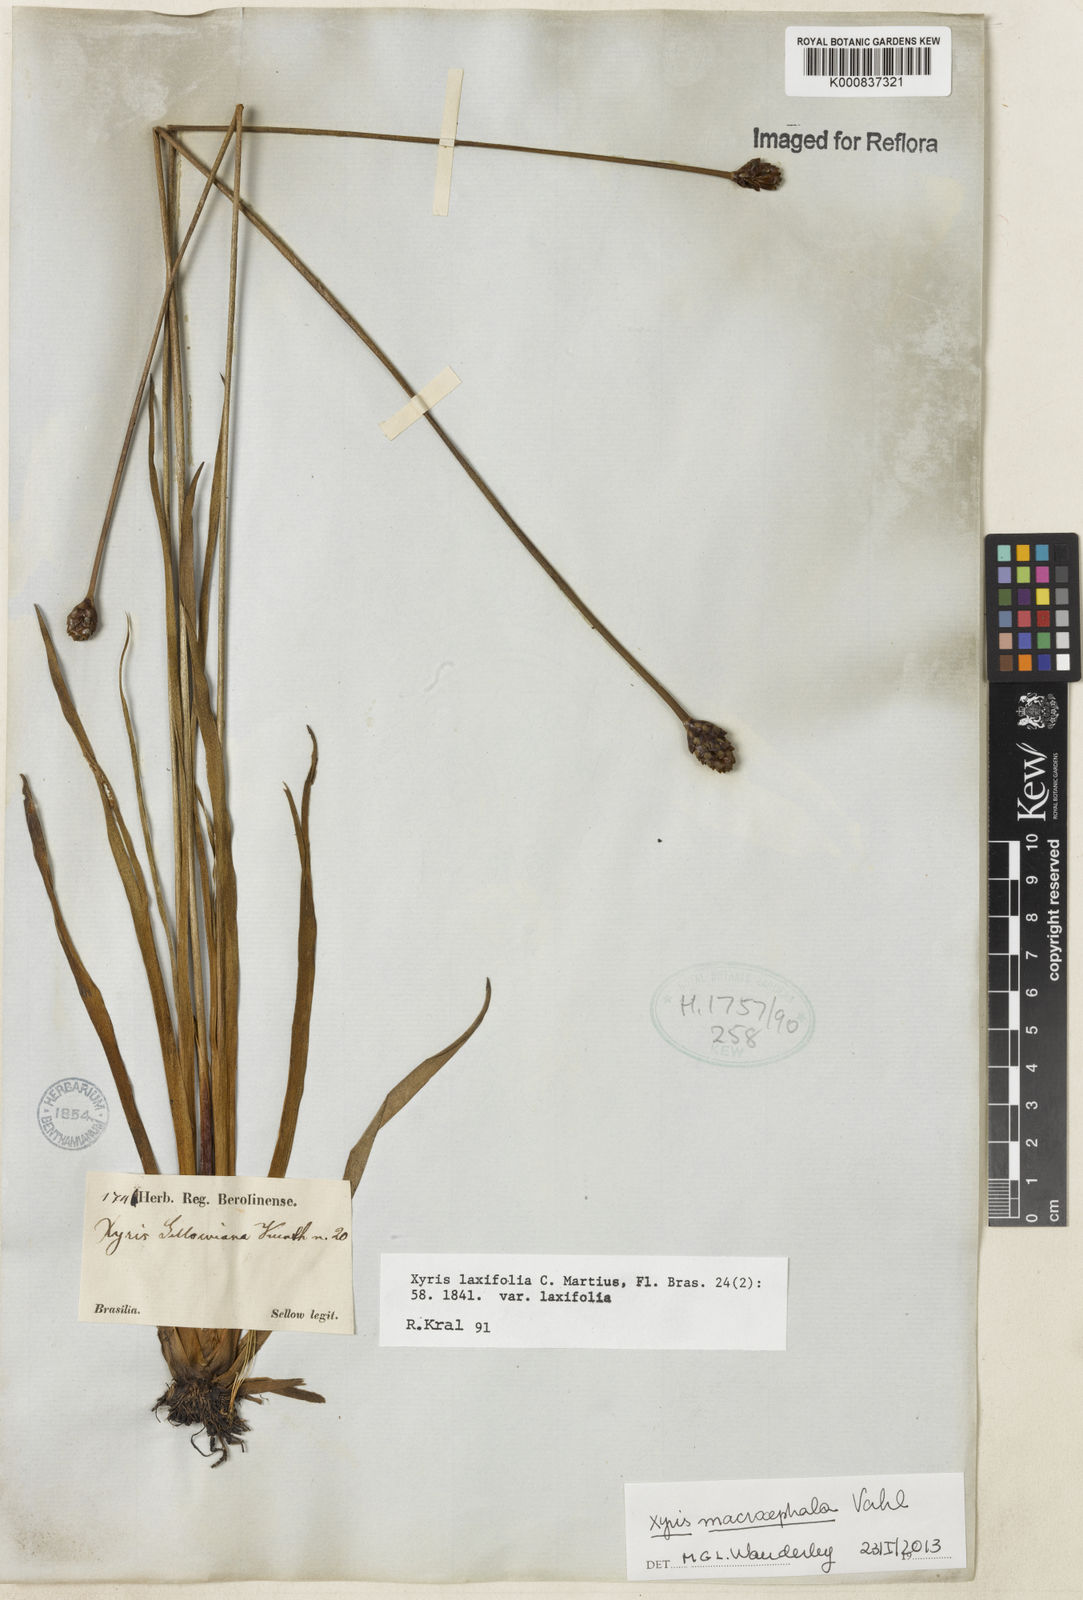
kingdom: Plantae
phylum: Tracheophyta
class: Liliopsida
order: Poales
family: Xyridaceae
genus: Xyris
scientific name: Xyris jupicai
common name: Richard's yelloweyed grass
